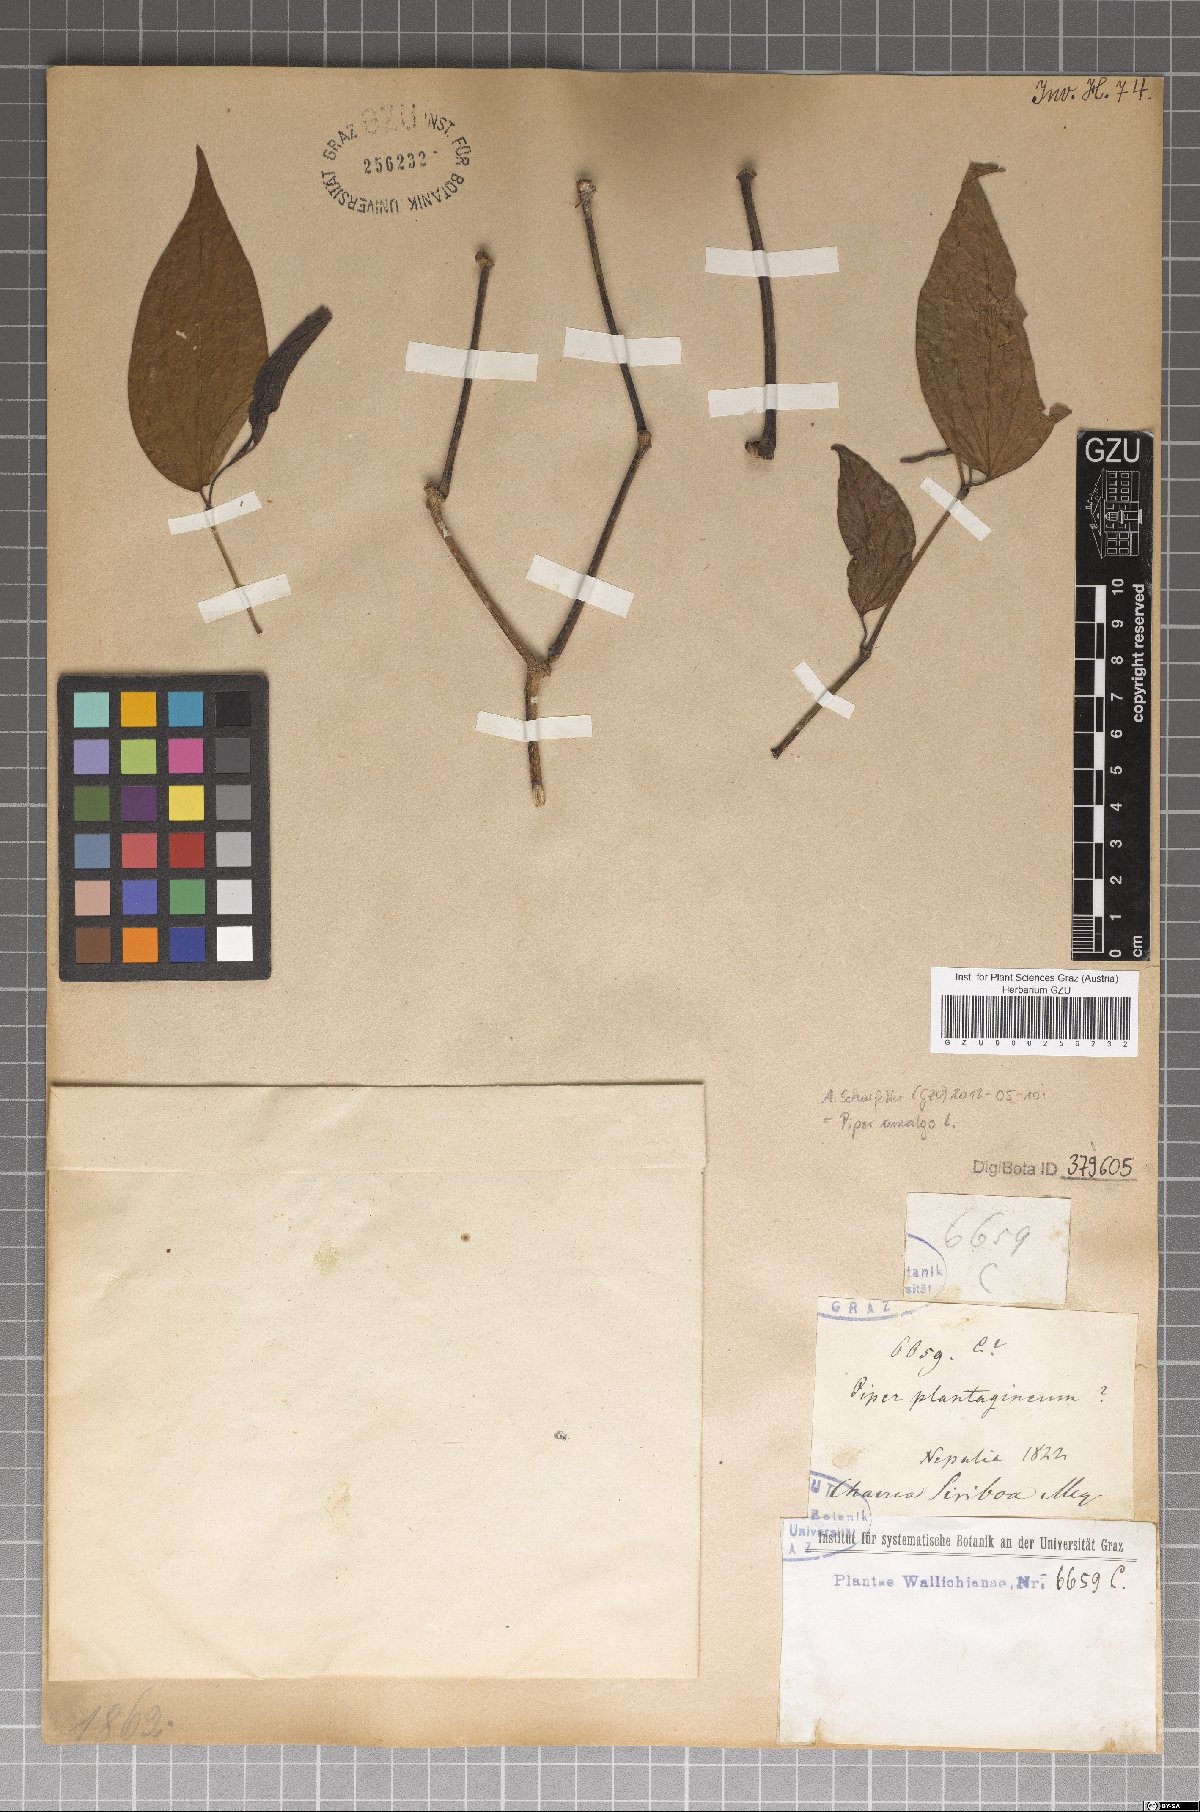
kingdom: Plantae
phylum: Tracheophyta
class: Magnoliopsida
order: Piperales
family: Piperaceae
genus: Piper
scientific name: Piper amalago
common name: Pepper-elder
